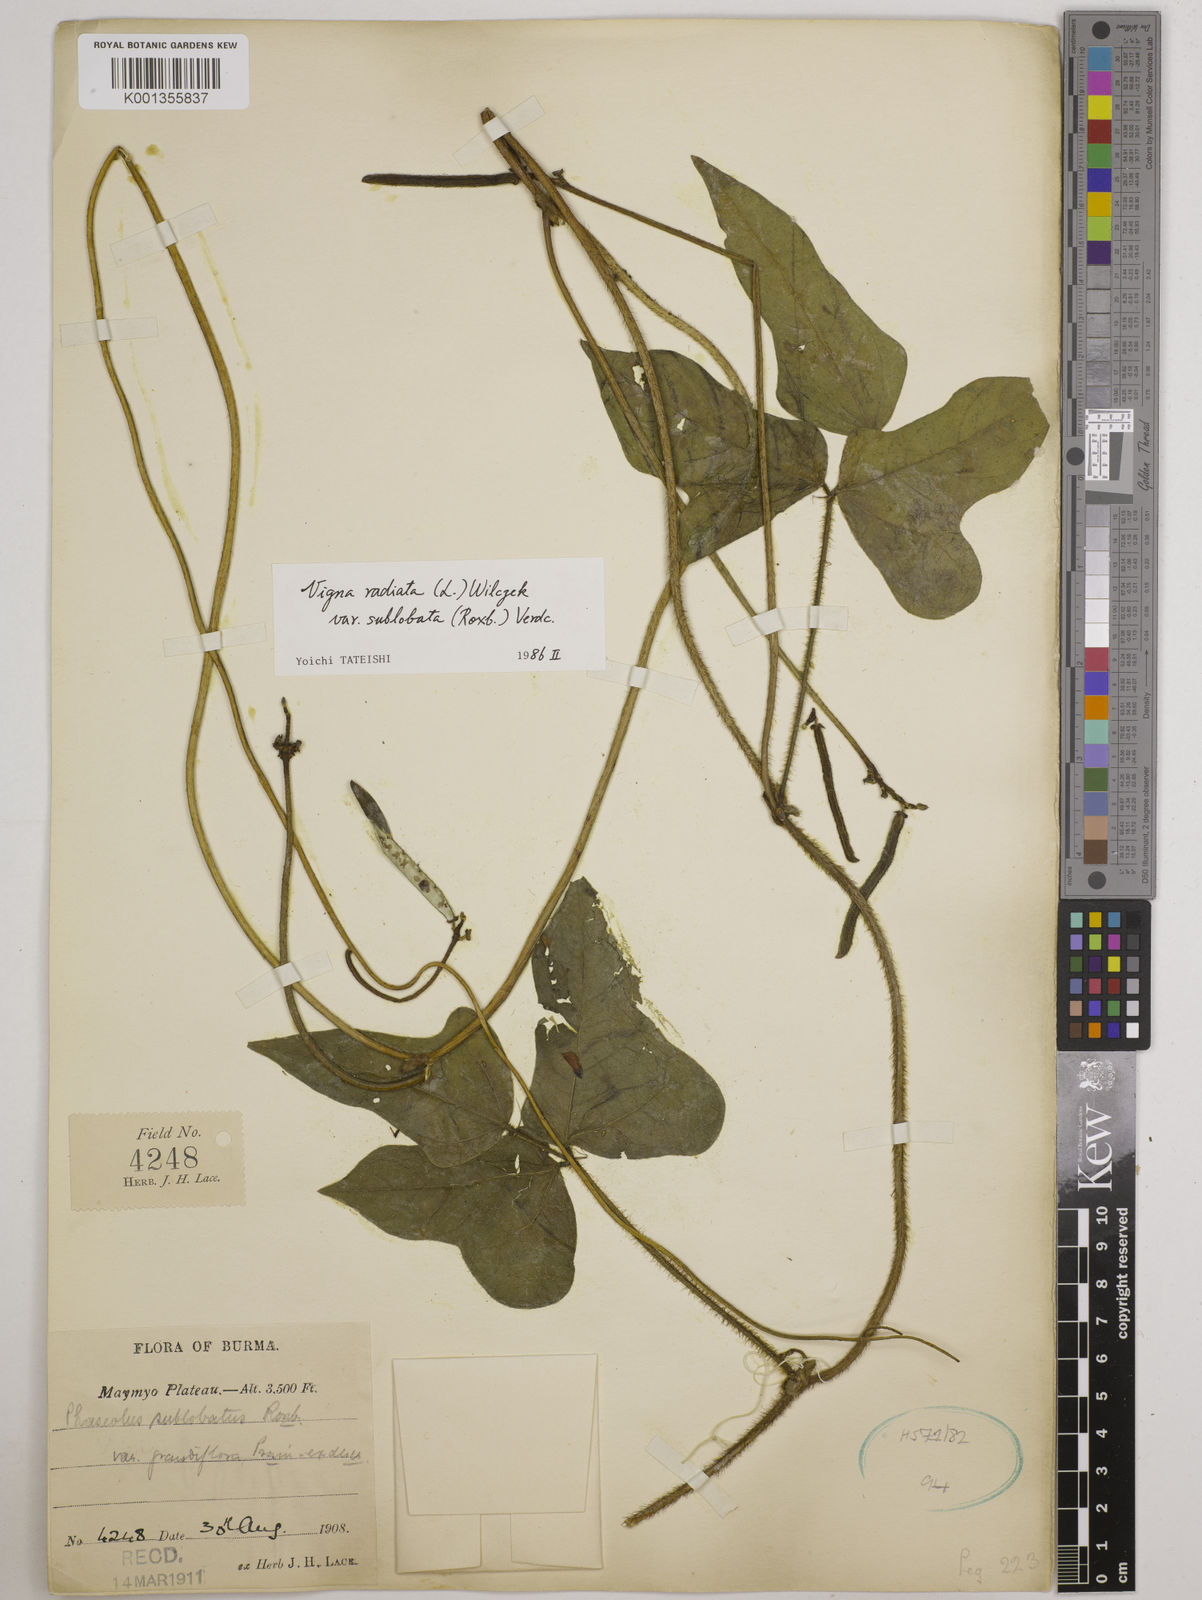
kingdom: Plantae
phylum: Tracheophyta
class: Magnoliopsida
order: Fabales
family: Fabaceae
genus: Vigna
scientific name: Vigna radiata
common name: Mung-bean
